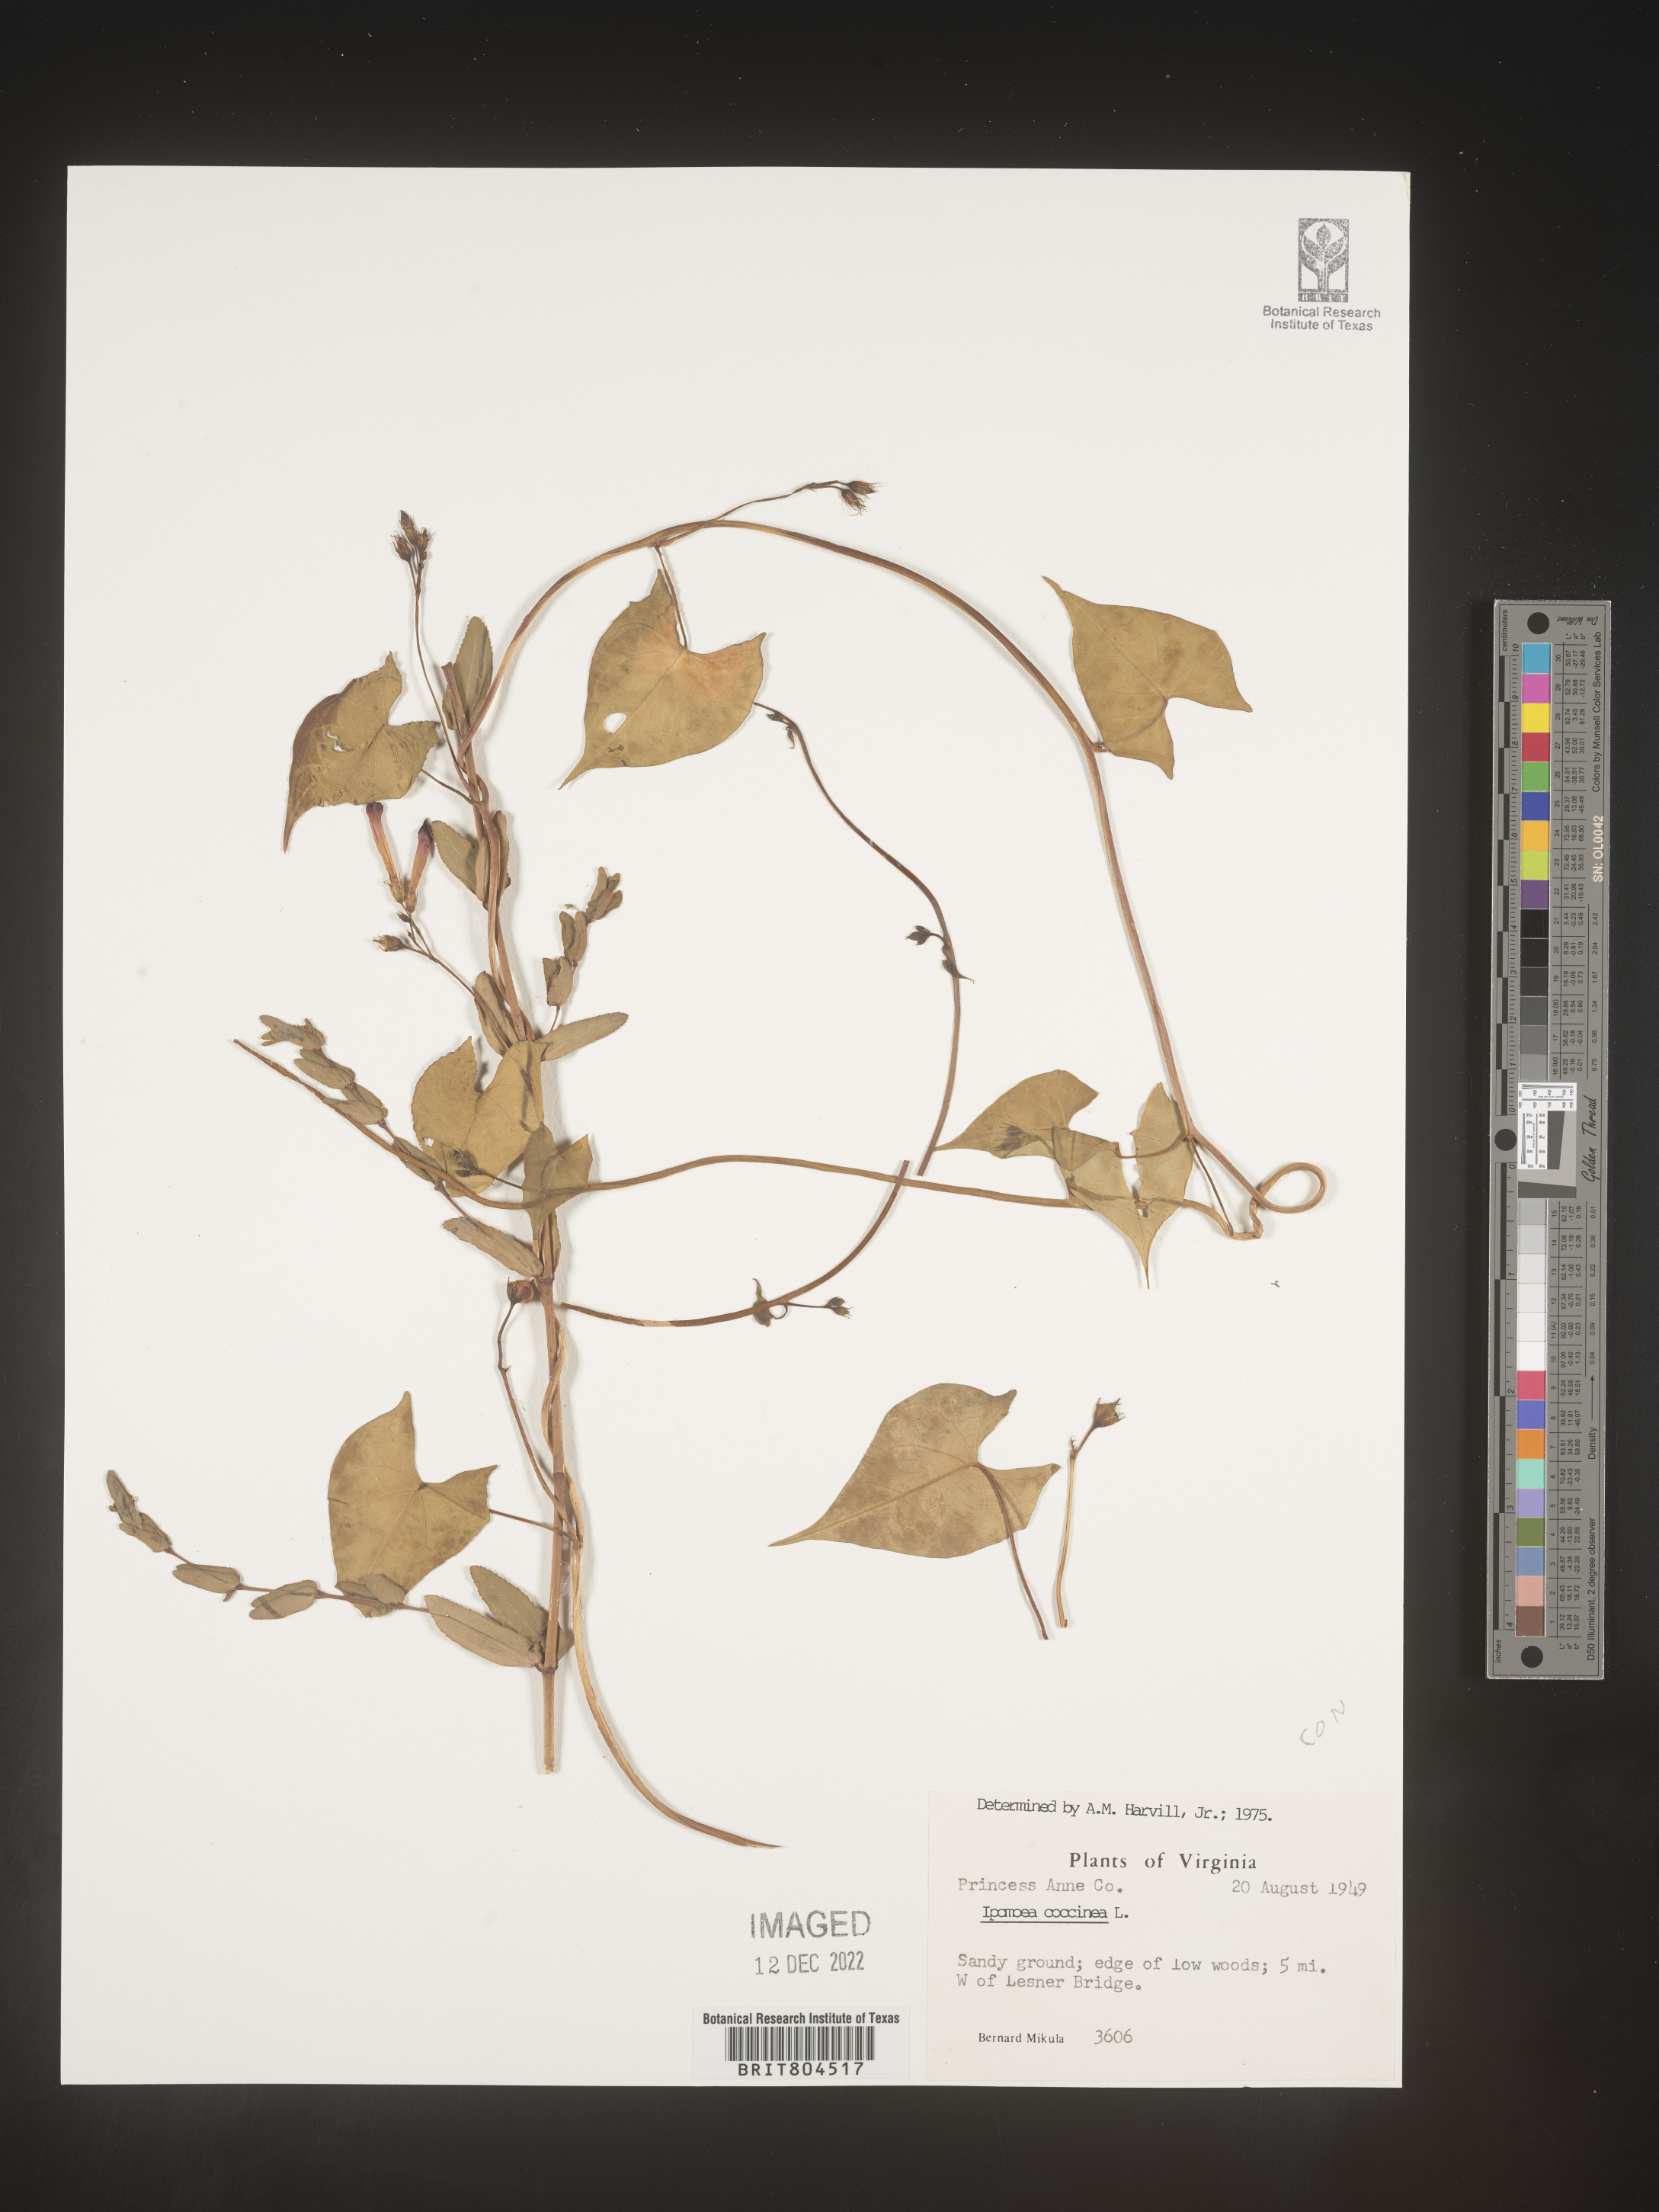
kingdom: Plantae
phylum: Tracheophyta
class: Magnoliopsida
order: Solanales
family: Convolvulaceae
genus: Ipomoea
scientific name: Ipomoea coccinea
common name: Red morning-glory
